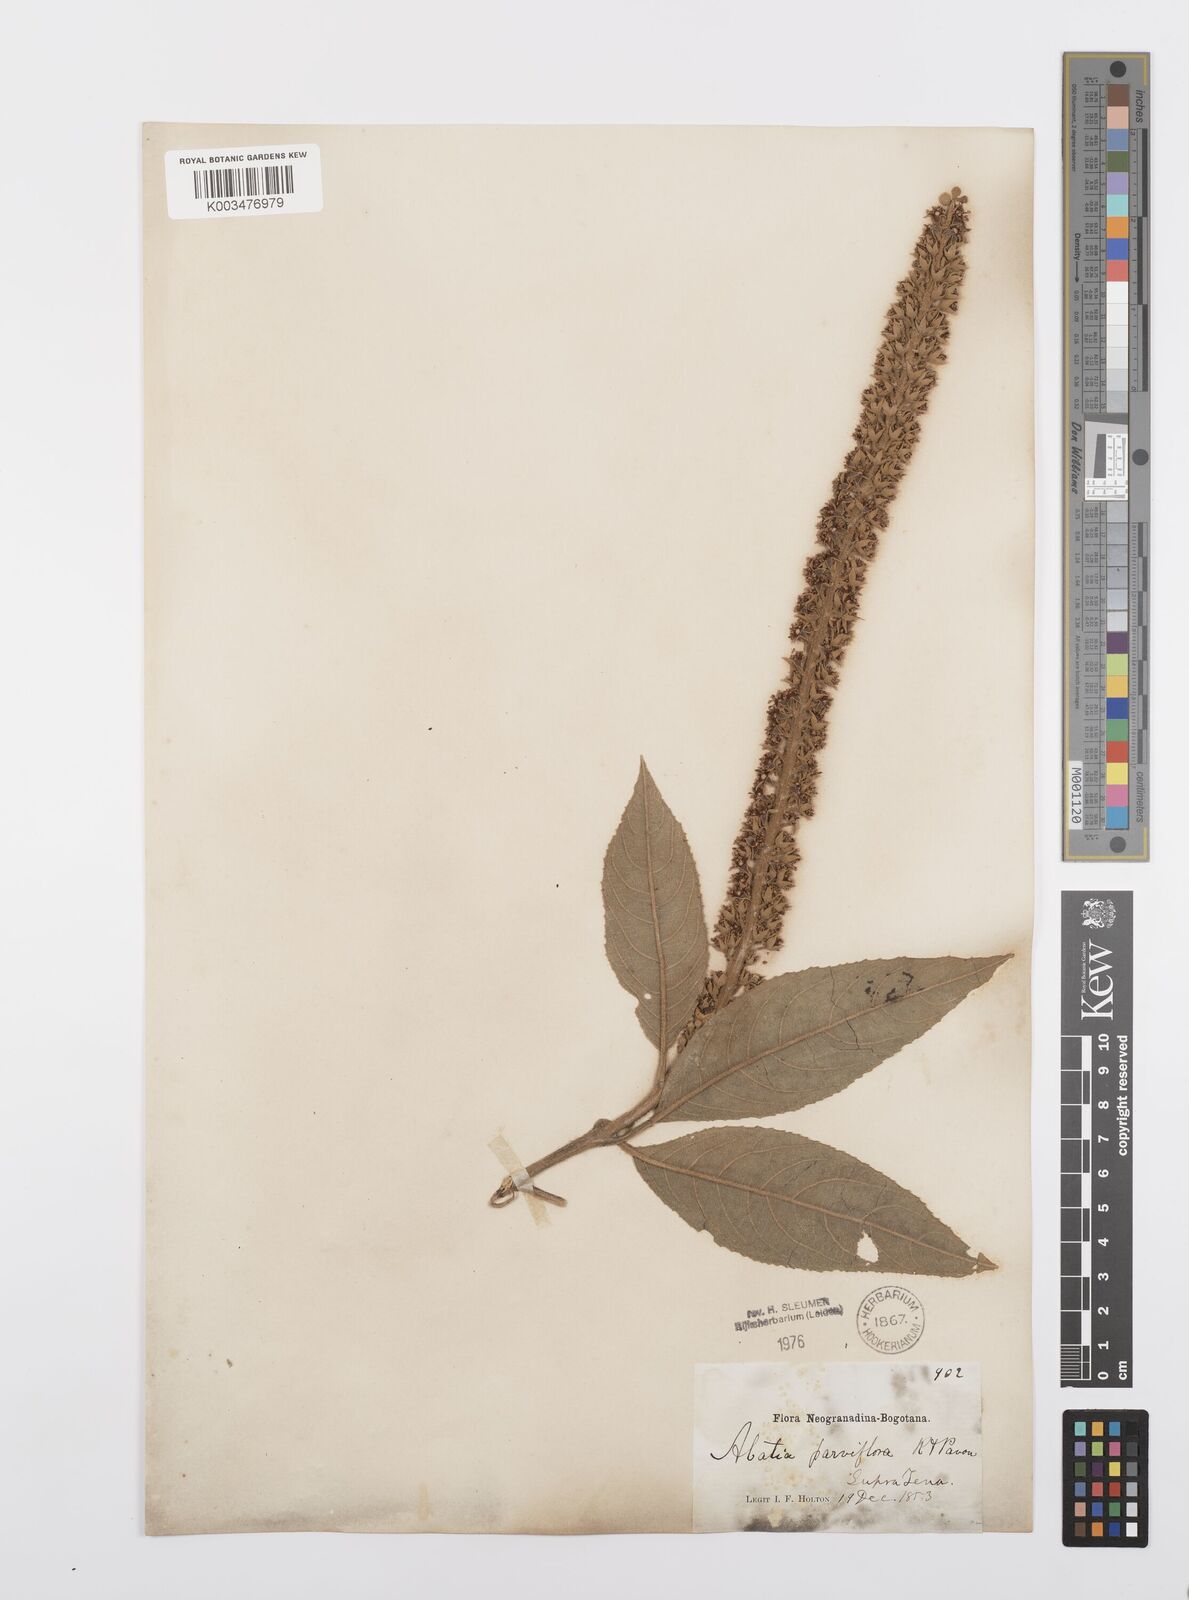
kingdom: Plantae
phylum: Tracheophyta
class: Magnoliopsida
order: Malpighiales
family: Salicaceae
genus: Abatia
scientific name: Abatia parviflora
